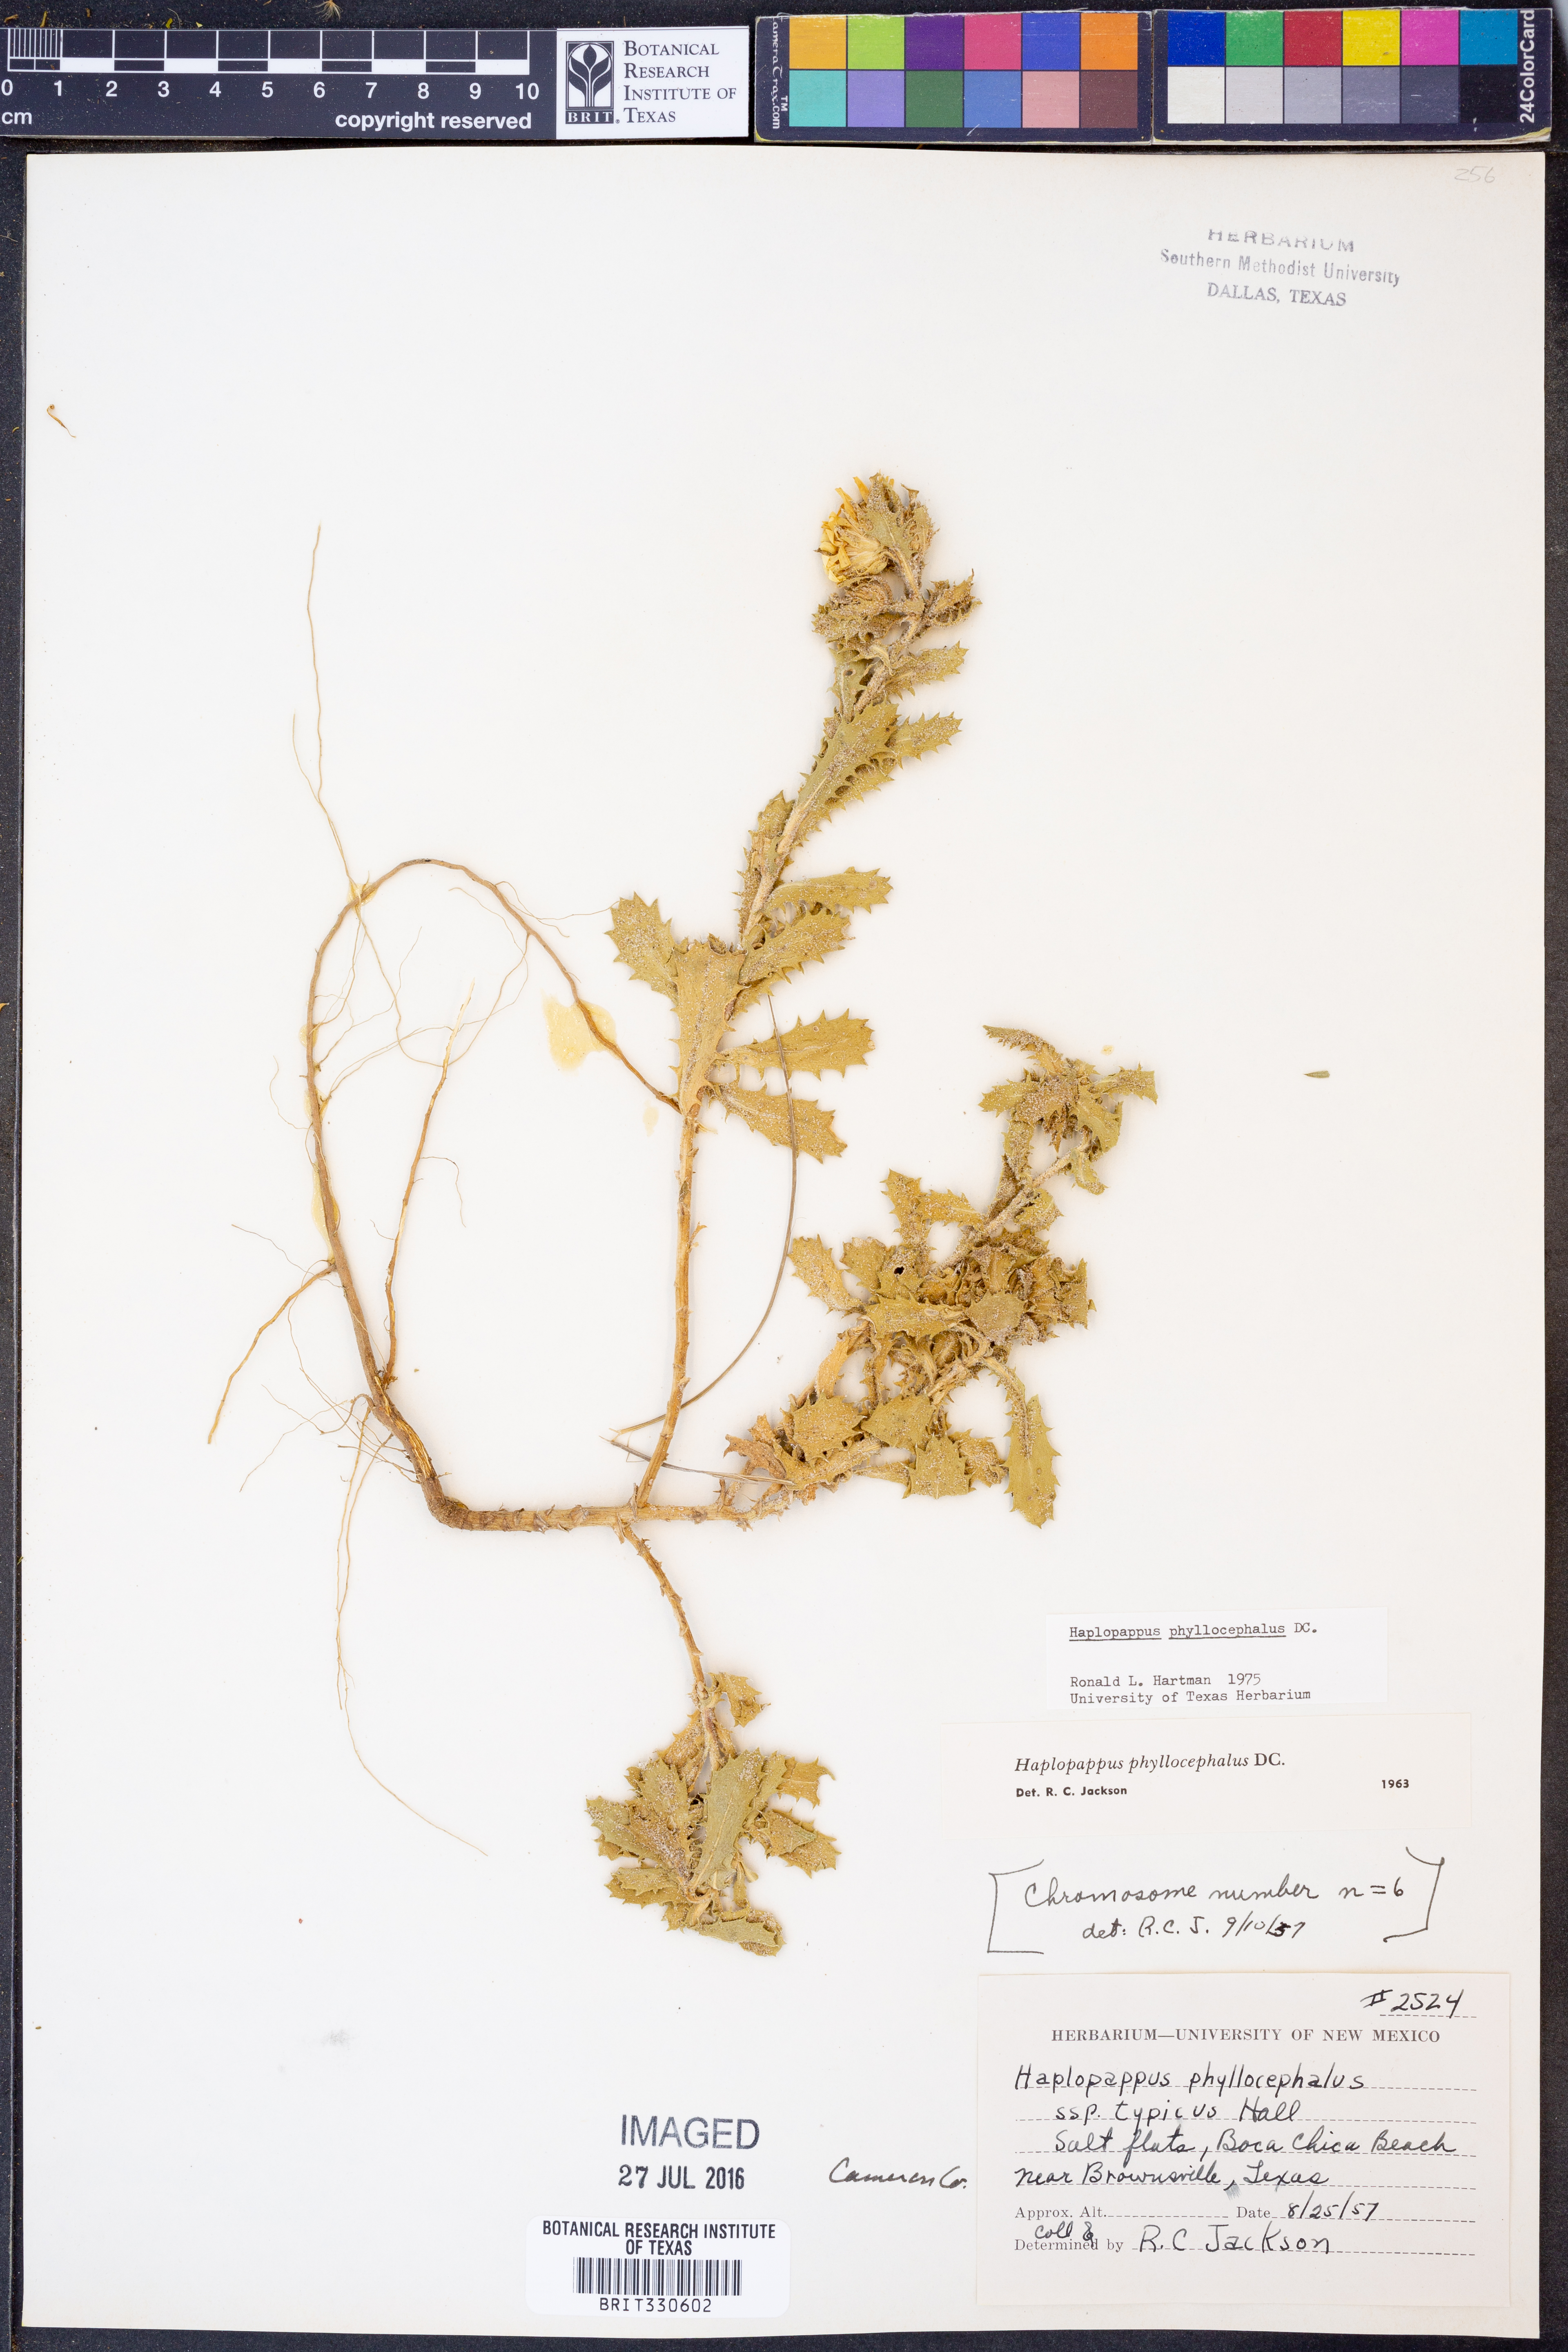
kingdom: Plantae
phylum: Tracheophyta
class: Magnoliopsida
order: Asterales
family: Asteraceae
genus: Rayjacksonia
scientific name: Rayjacksonia phyllocephala
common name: Gulf coast camphor daisy
